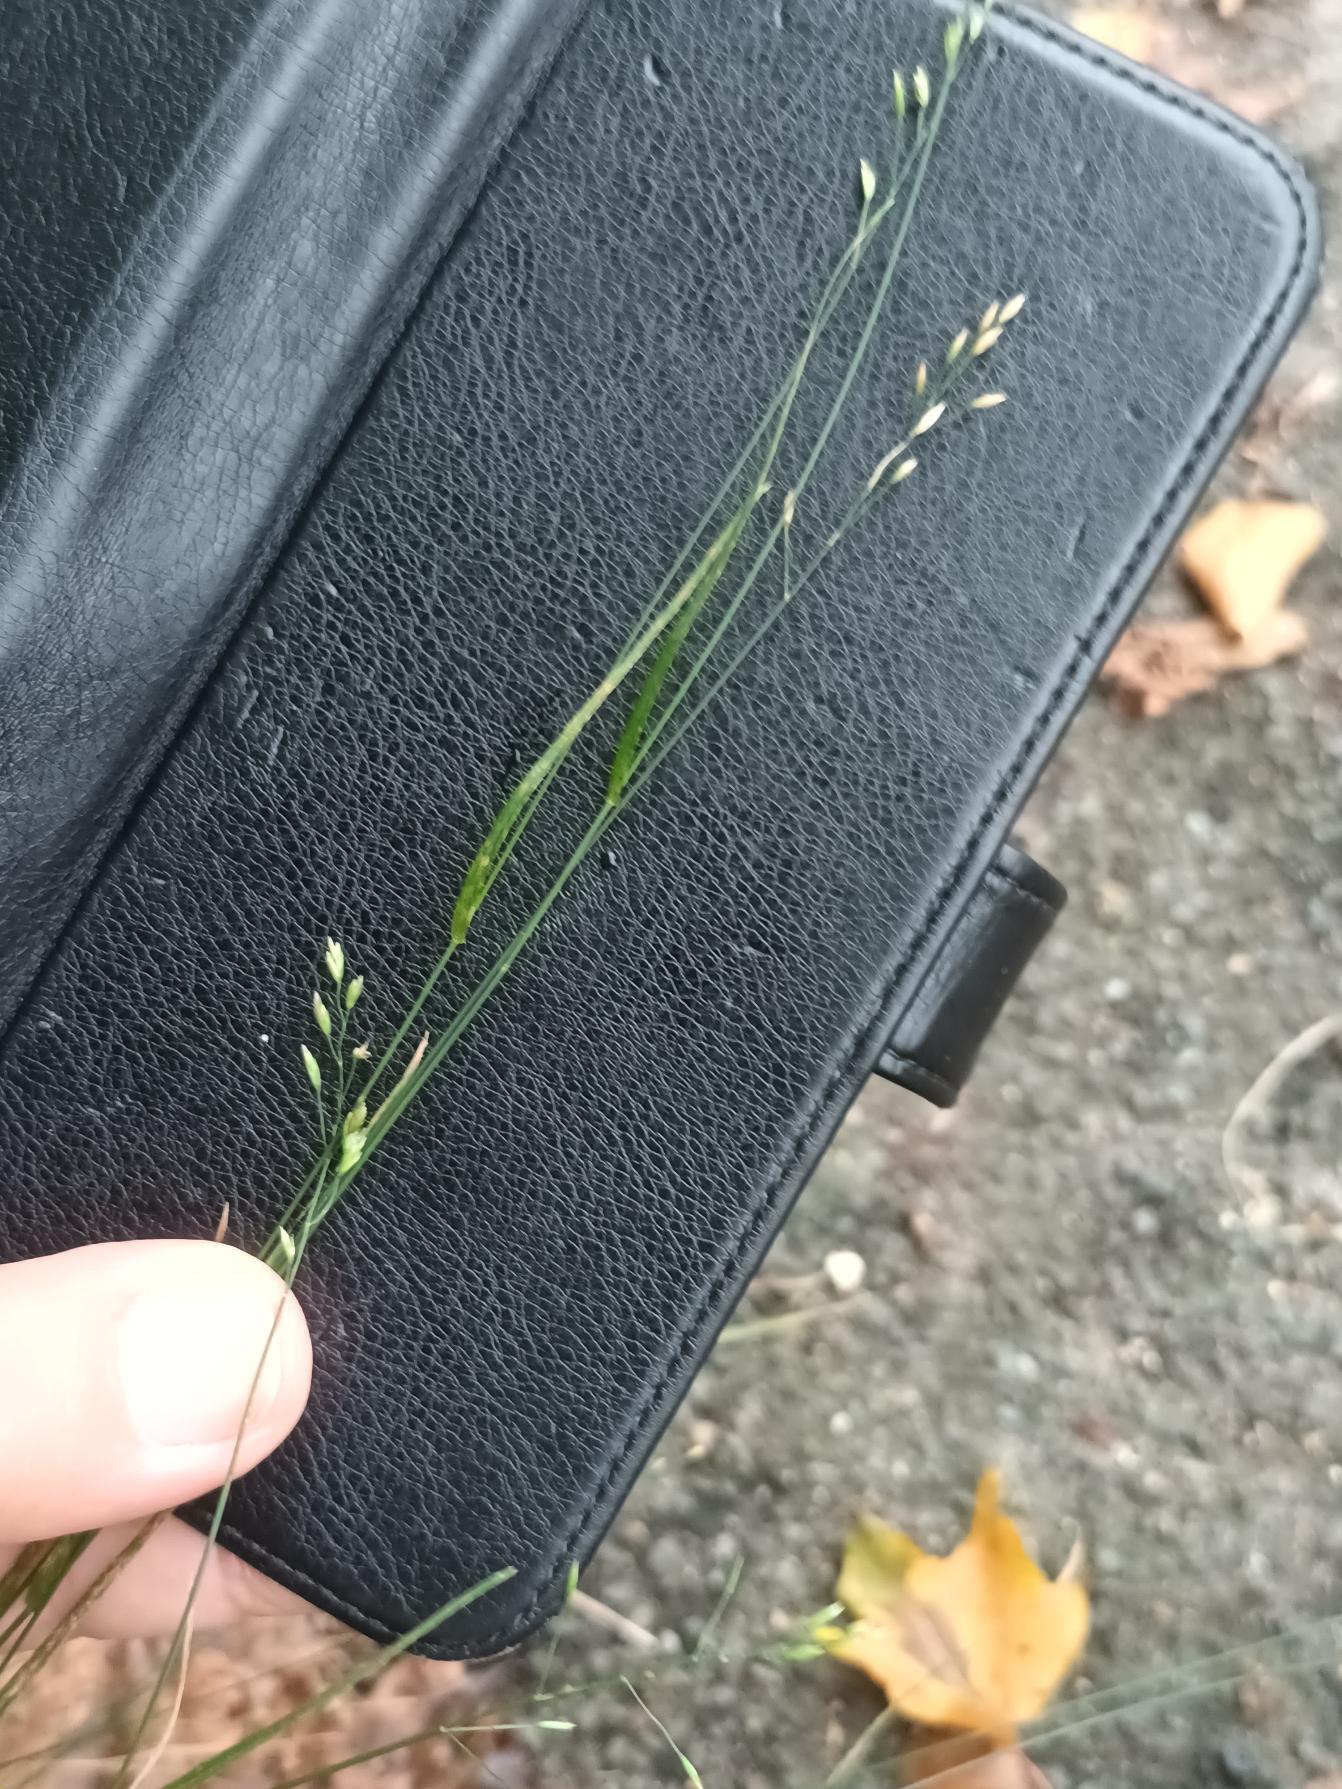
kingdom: Plantae
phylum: Tracheophyta
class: Liliopsida
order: Poales
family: Poaceae
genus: Poa
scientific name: Poa nemoralis
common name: Lund-rapgræs
